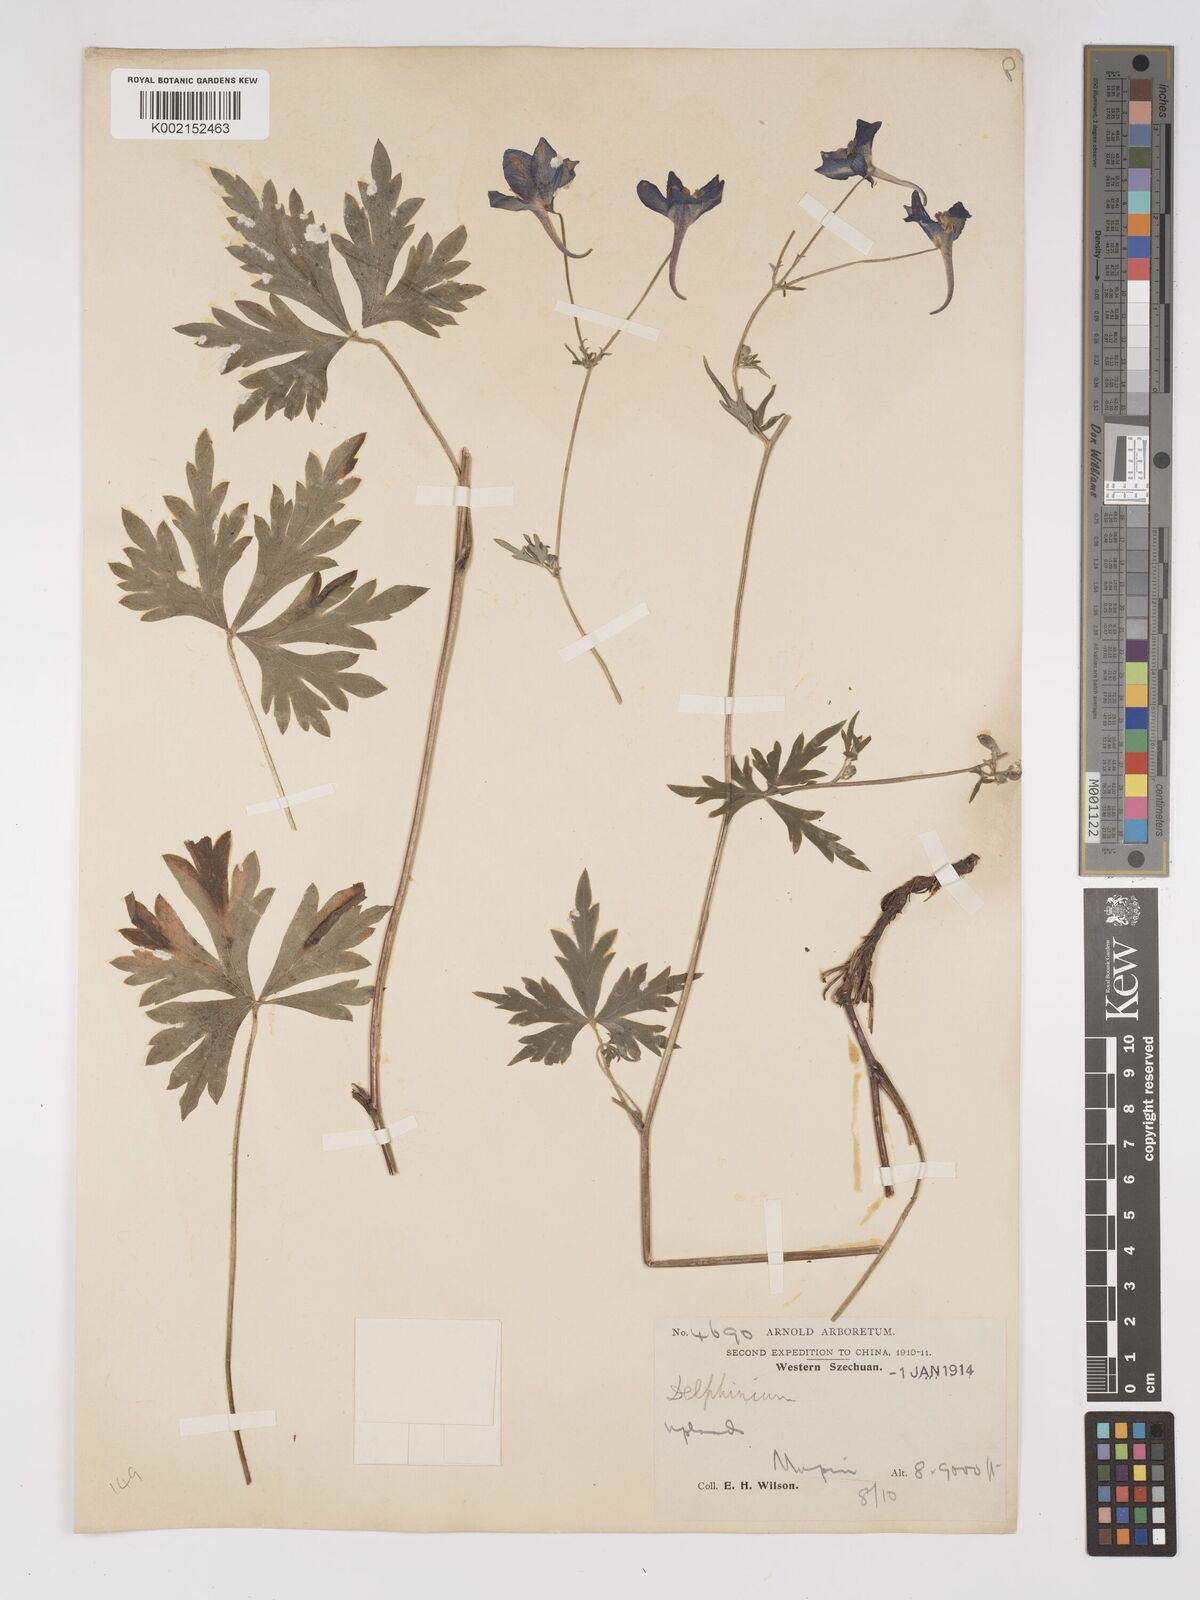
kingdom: Plantae
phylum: Tracheophyta
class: Magnoliopsida
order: Ranunculales
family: Ranunculaceae
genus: Delphinium
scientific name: Delphinium davidii
